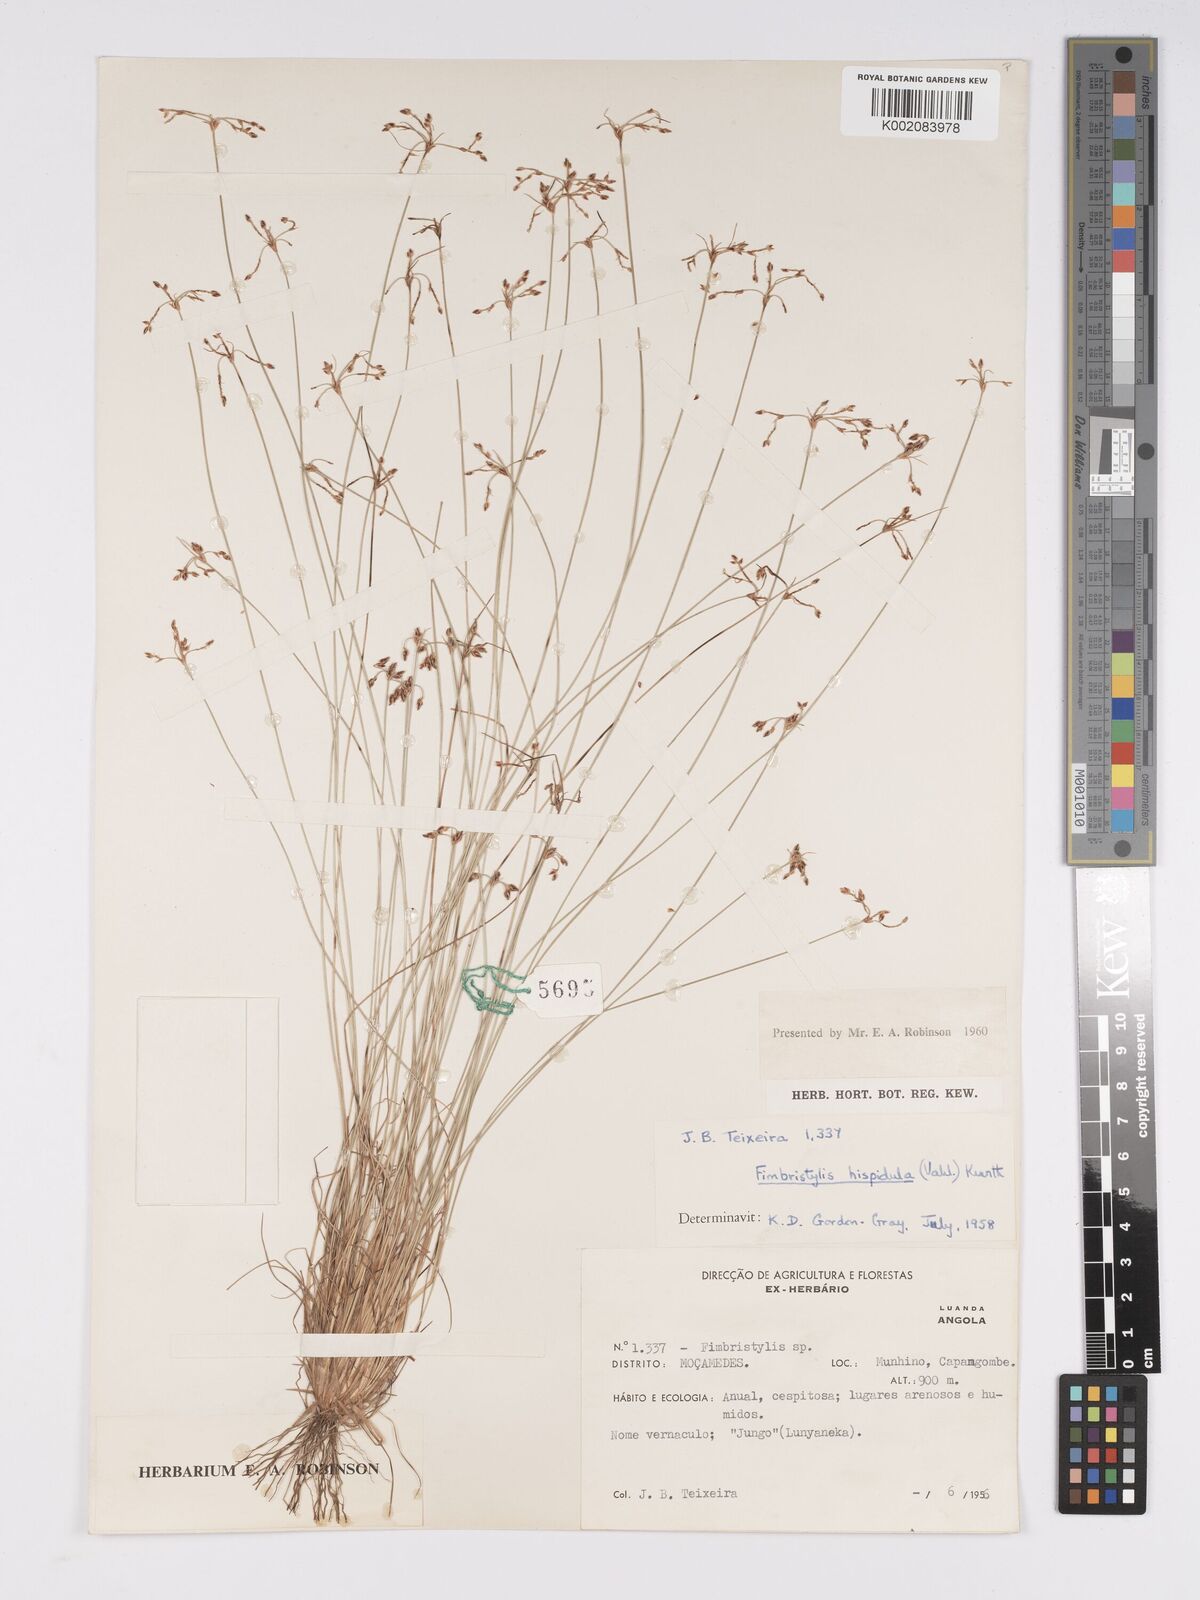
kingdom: Plantae
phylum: Tracheophyta
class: Liliopsida
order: Poales
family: Cyperaceae
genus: Bulbostylis
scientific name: Bulbostylis hispidula
